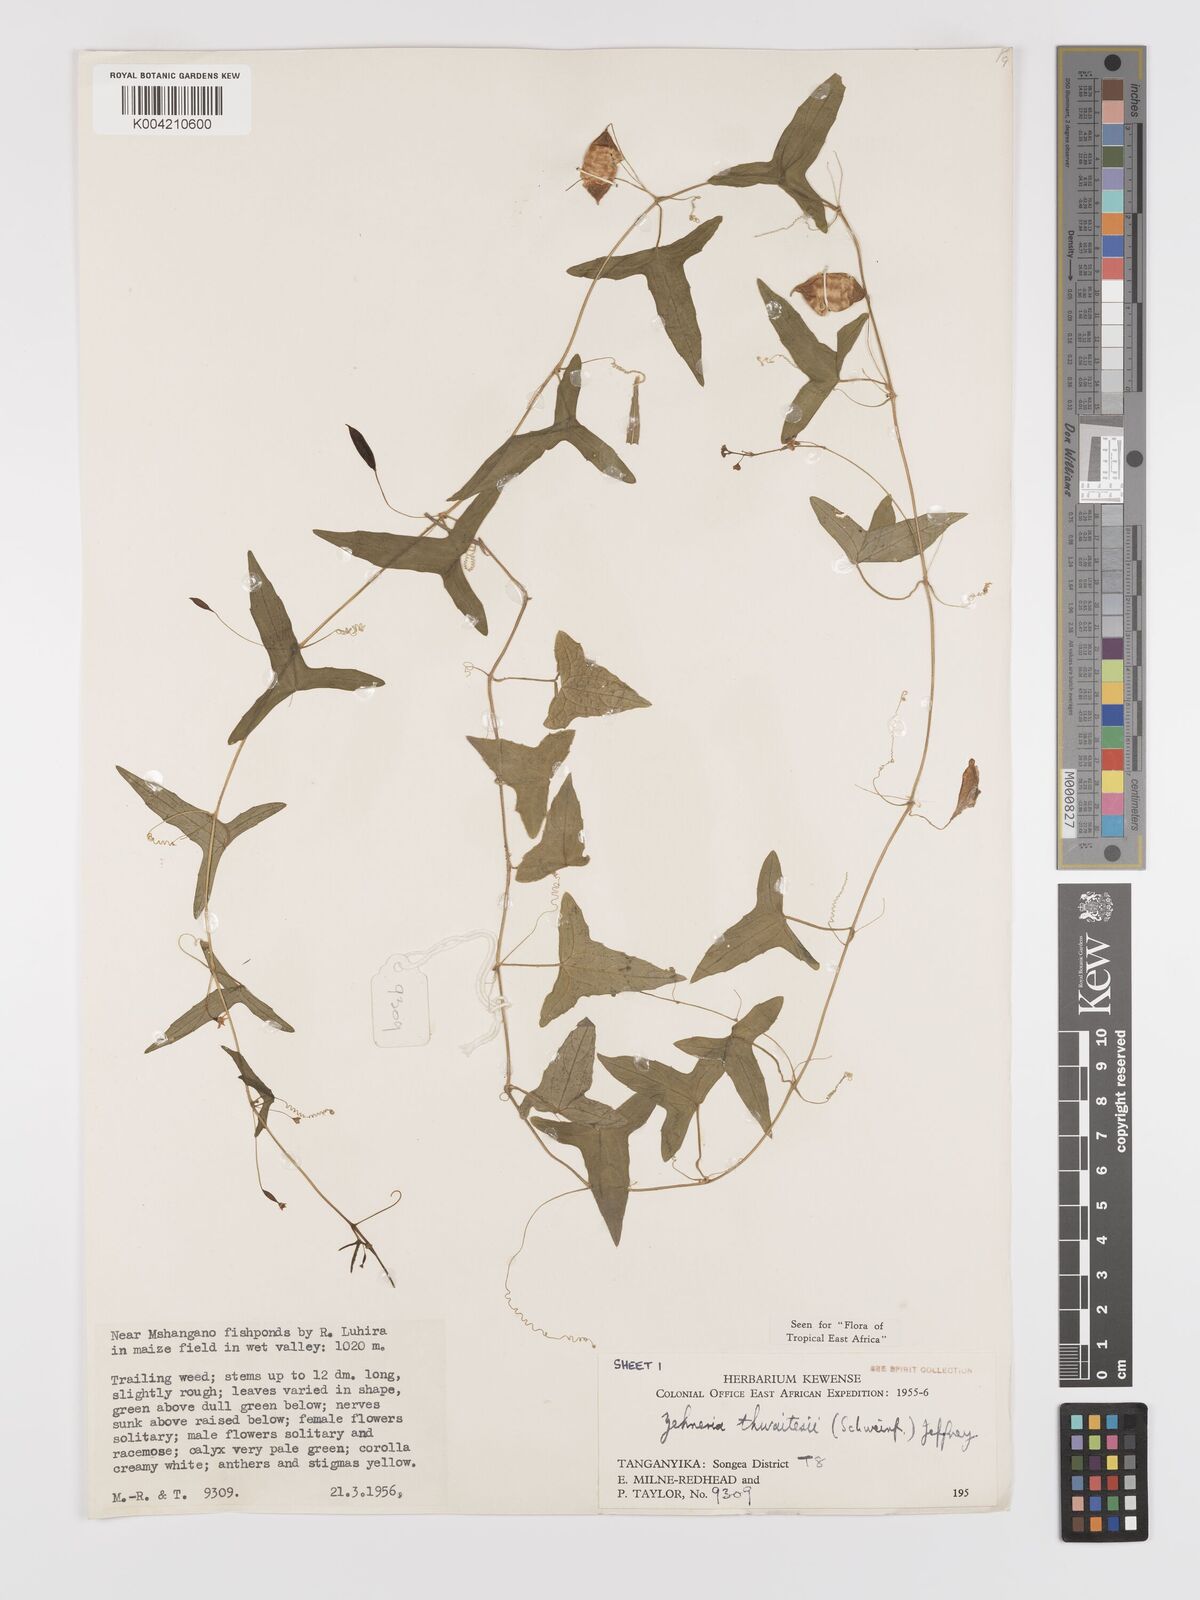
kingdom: Plantae
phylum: Tracheophyta
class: Magnoliopsida
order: Cucurbitales
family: Cucurbitaceae
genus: Zehneria
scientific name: Zehneria thwaitesii
